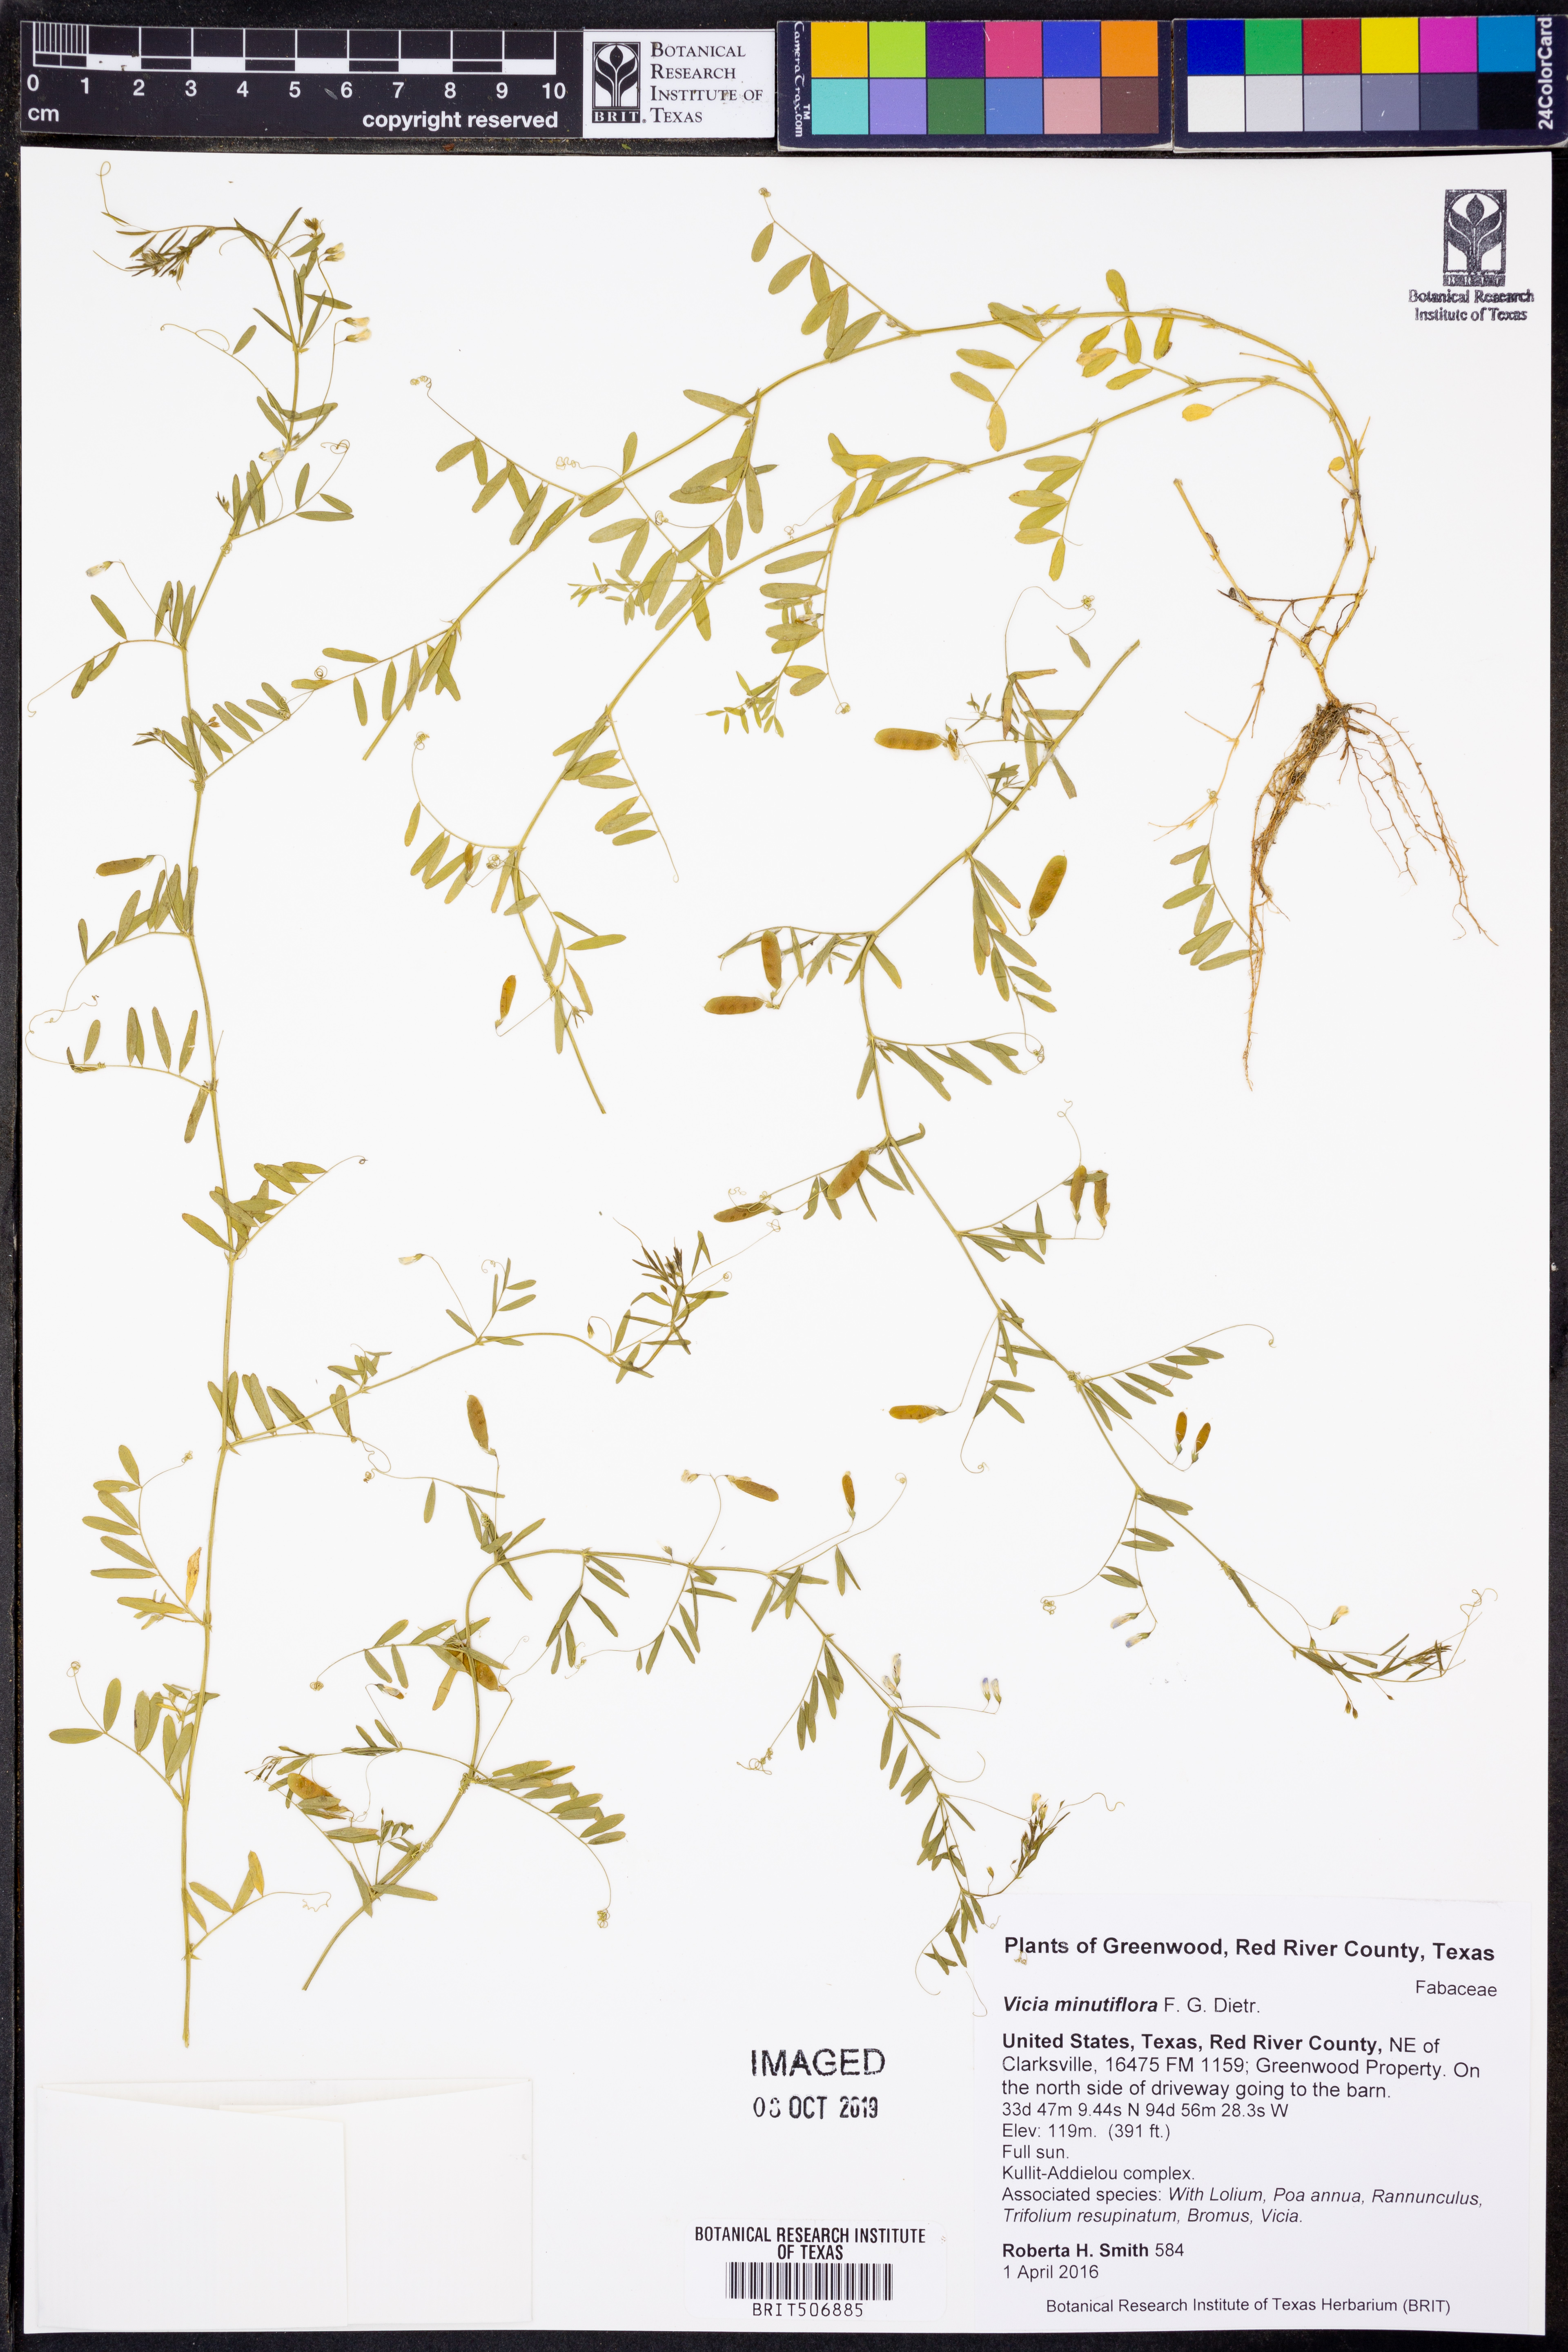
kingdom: Plantae
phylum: Tracheophyta
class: Magnoliopsida
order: Fabales
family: Fabaceae
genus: Vicia
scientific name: Vicia minutiflora
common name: Pygmy-flower vetch
